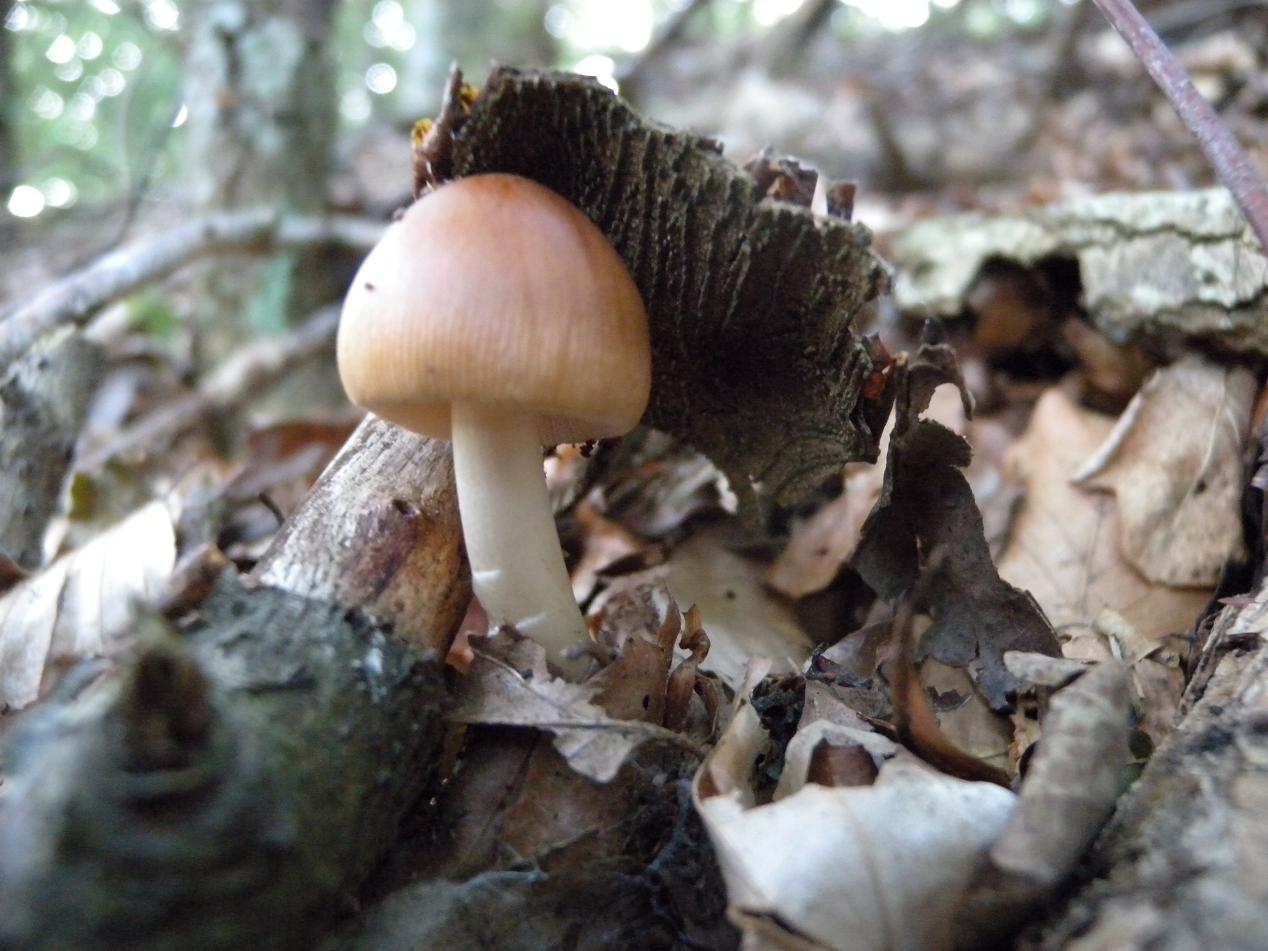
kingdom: Fungi
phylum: Basidiomycota
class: Agaricomycetes
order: Agaricales
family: Amanitaceae
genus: Amanita
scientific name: Amanita fulva
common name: brun kam-fluesvamp
